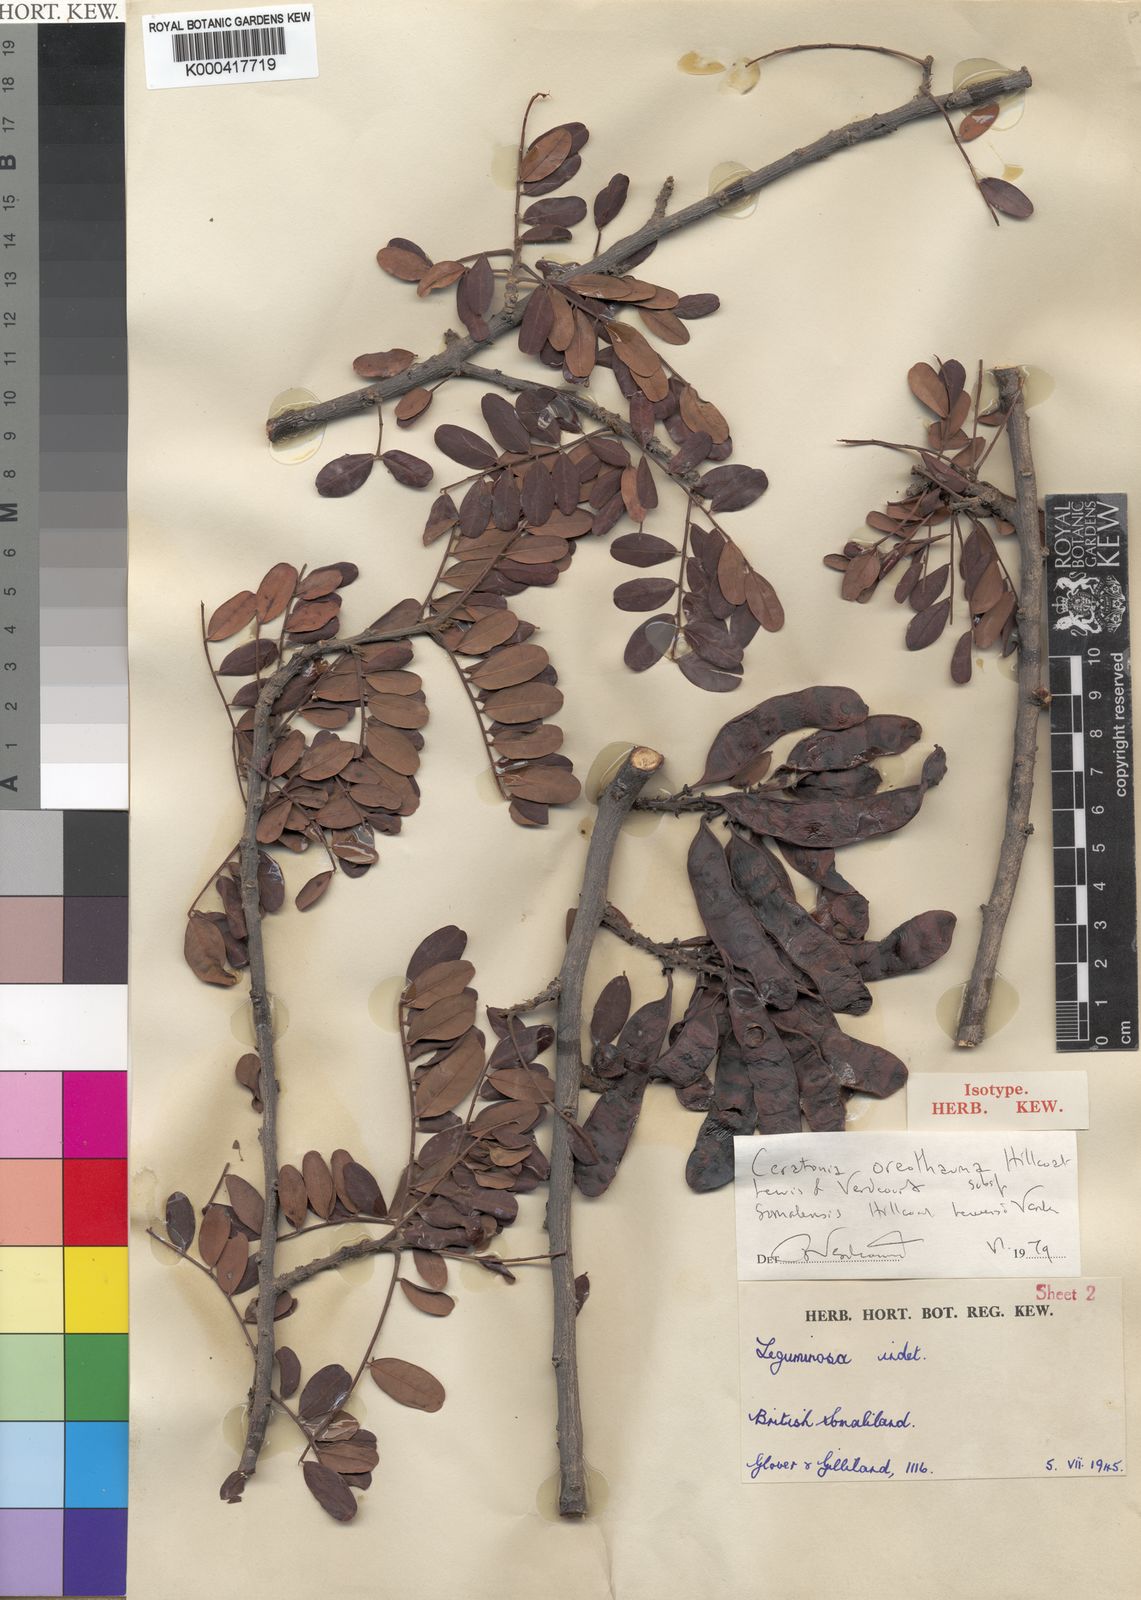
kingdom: Plantae
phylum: Tracheophyta
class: Magnoliopsida
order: Fabales
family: Fabaceae
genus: Ceratonia
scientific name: Ceratonia oreothauma
